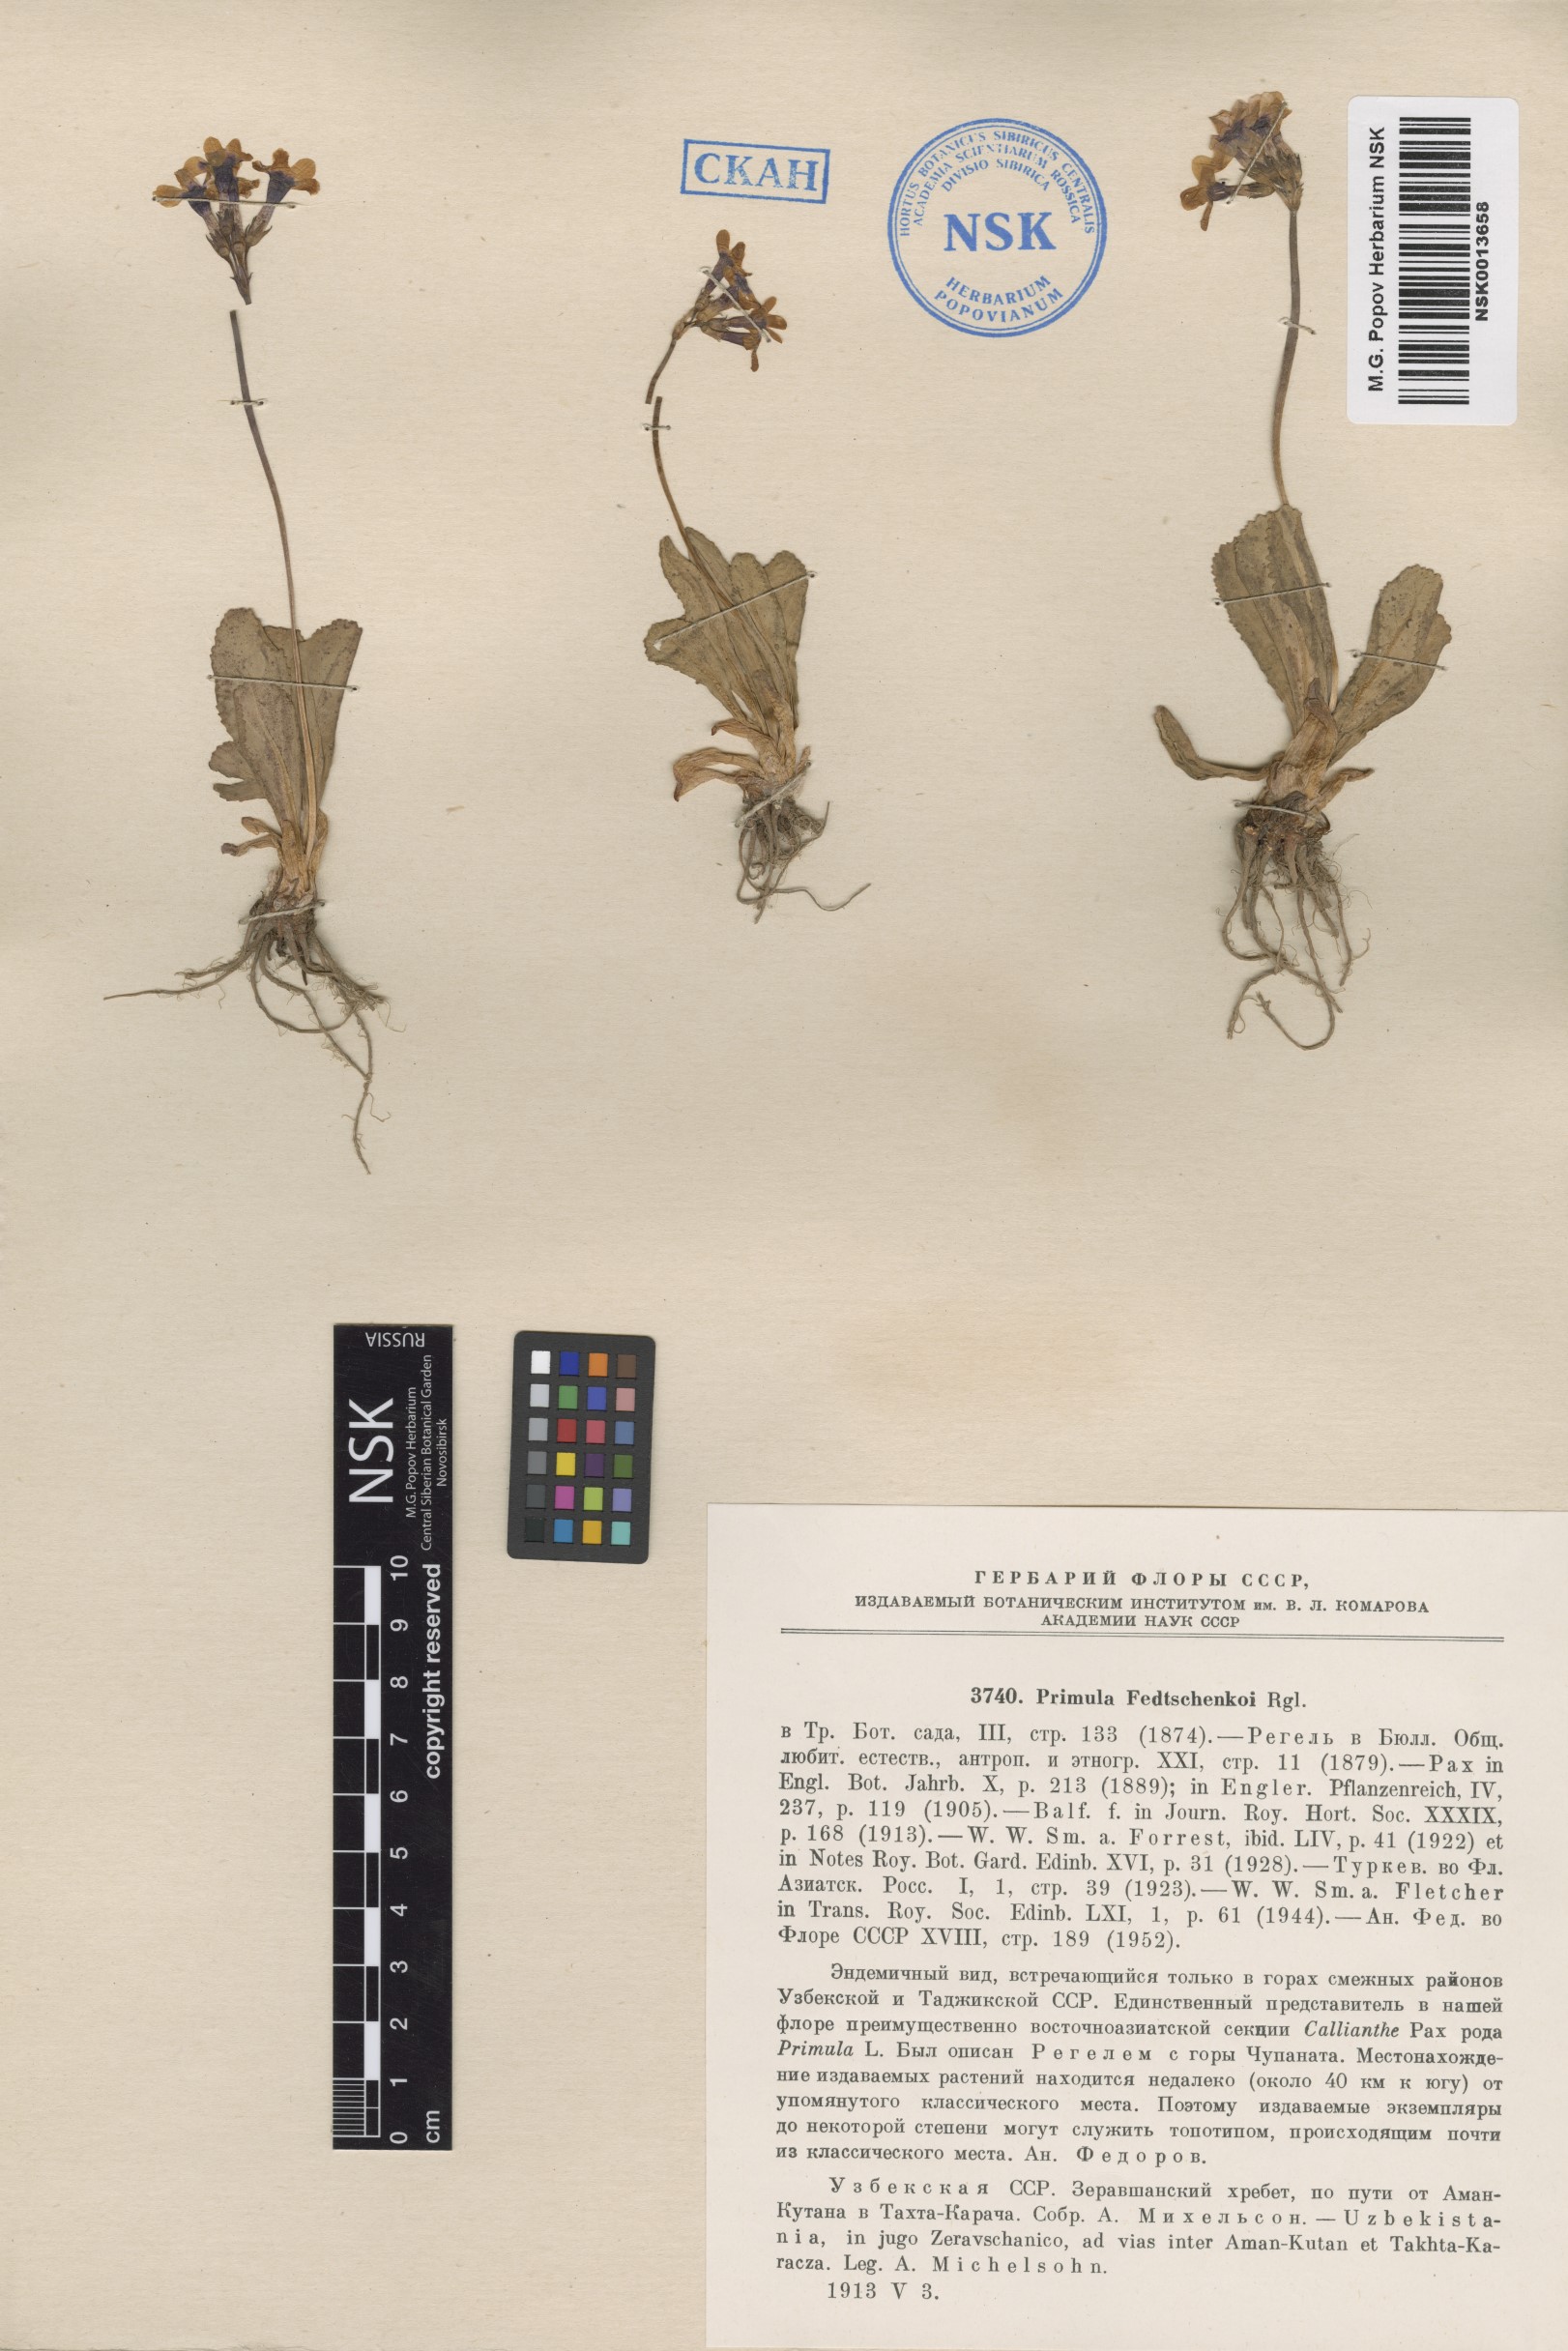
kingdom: Plantae
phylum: Tracheophyta
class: Magnoliopsida
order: Ericales
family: Primulaceae
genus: Primula
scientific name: Primula fedtschenkoi
